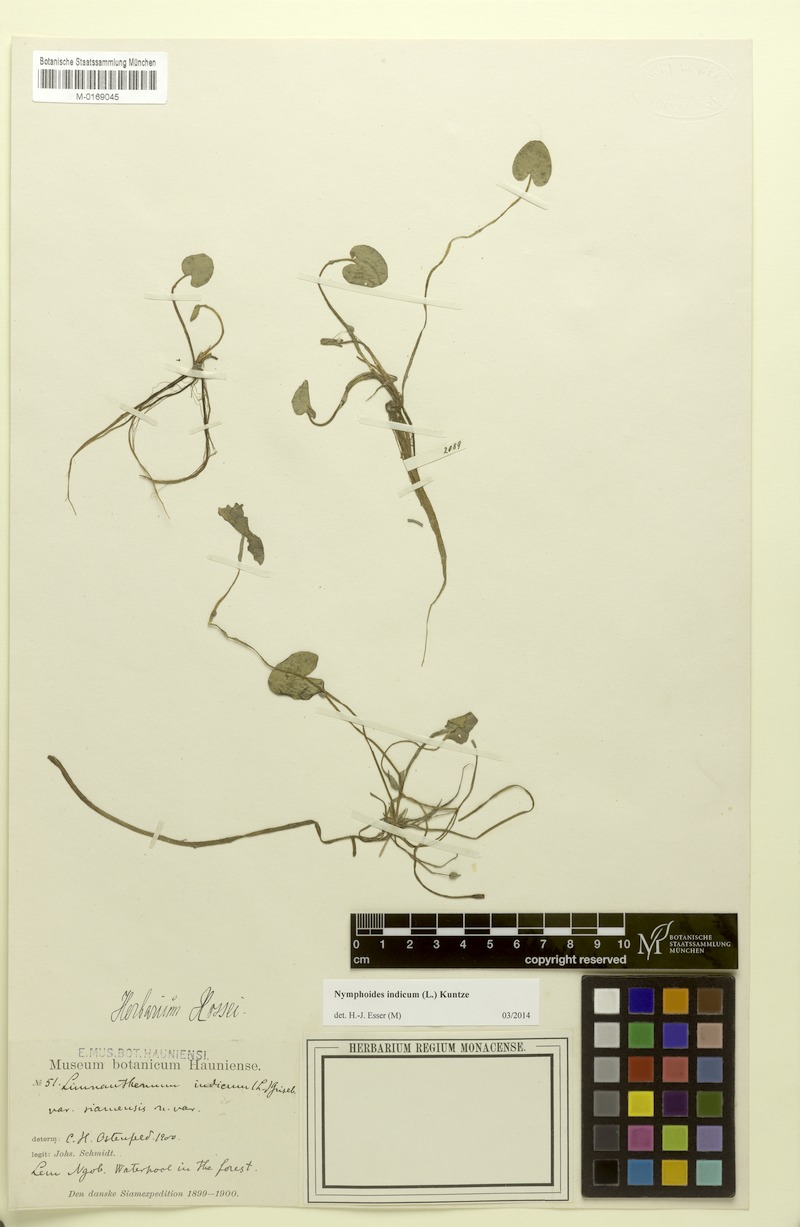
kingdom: Plantae
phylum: Tracheophyta
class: Magnoliopsida
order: Asterales
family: Menyanthaceae
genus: Nymphoides
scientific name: Nymphoides indica
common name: Water-snowflake
